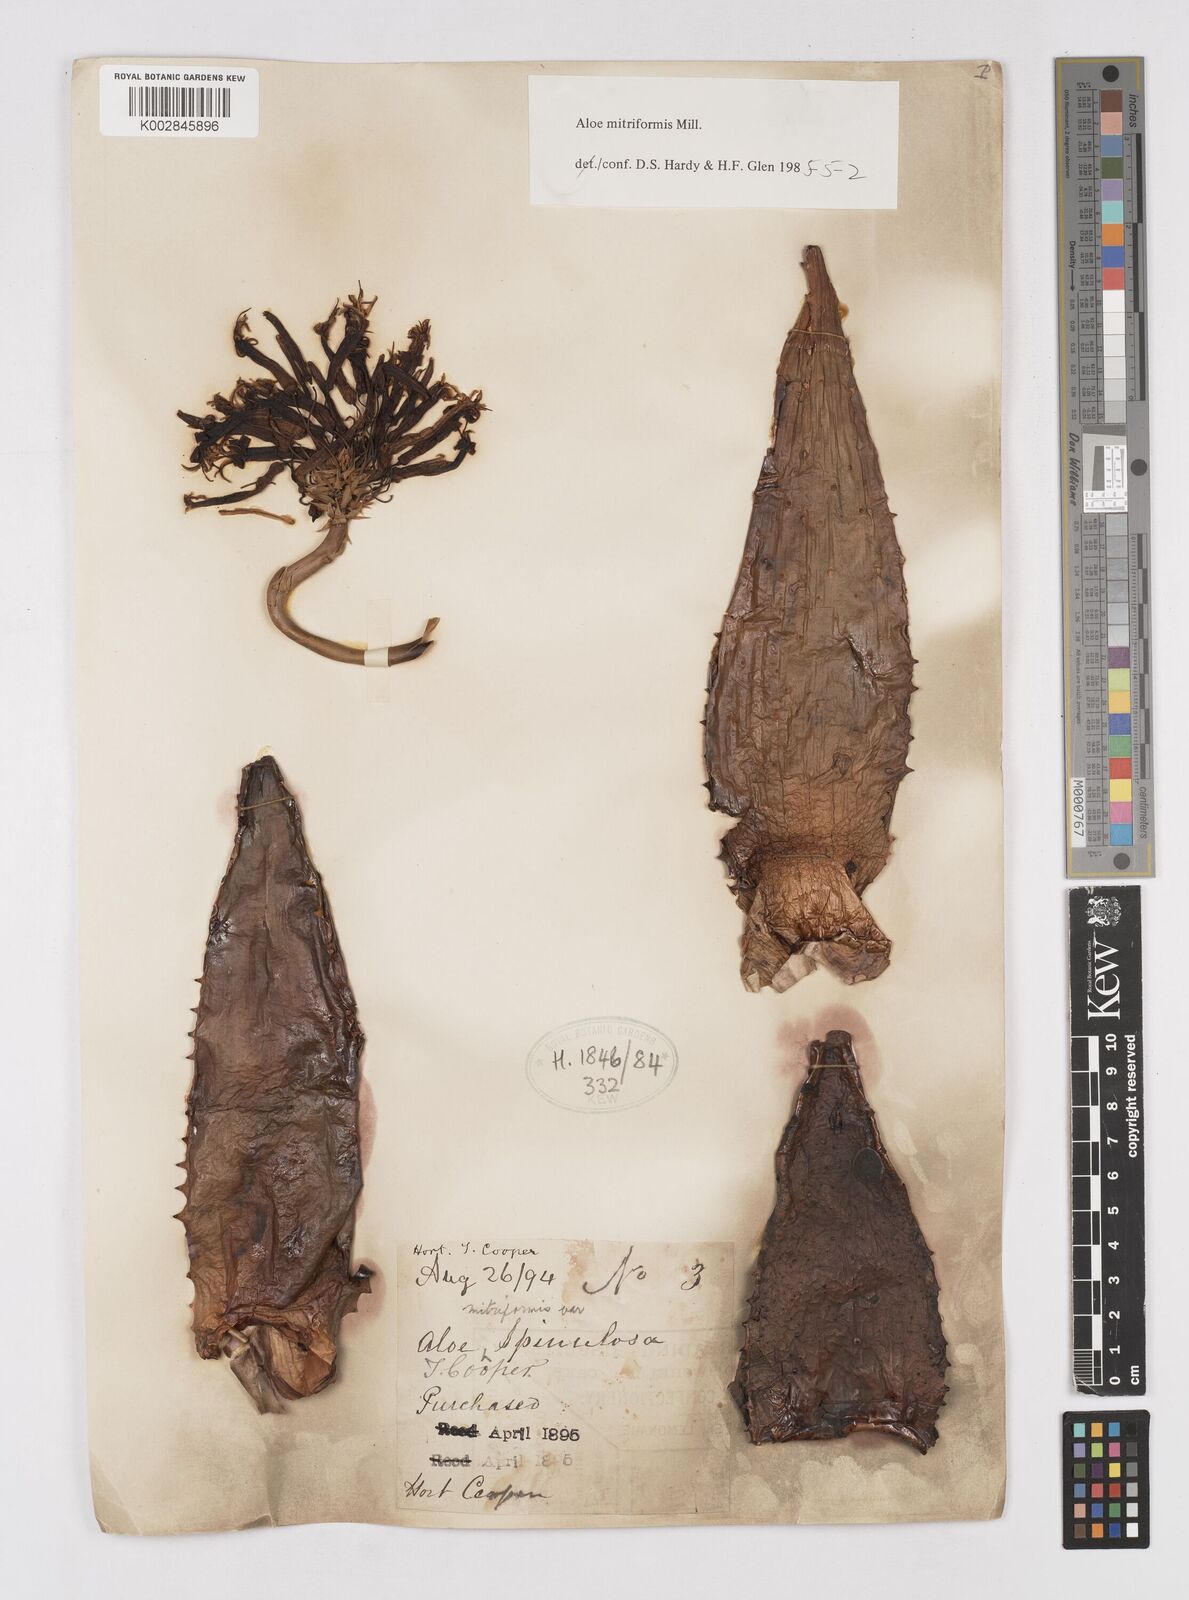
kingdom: Plantae
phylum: Tracheophyta
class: Liliopsida
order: Asparagales
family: Asphodelaceae
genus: Aloe
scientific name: Aloe perfoliata
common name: Mitra aloe
